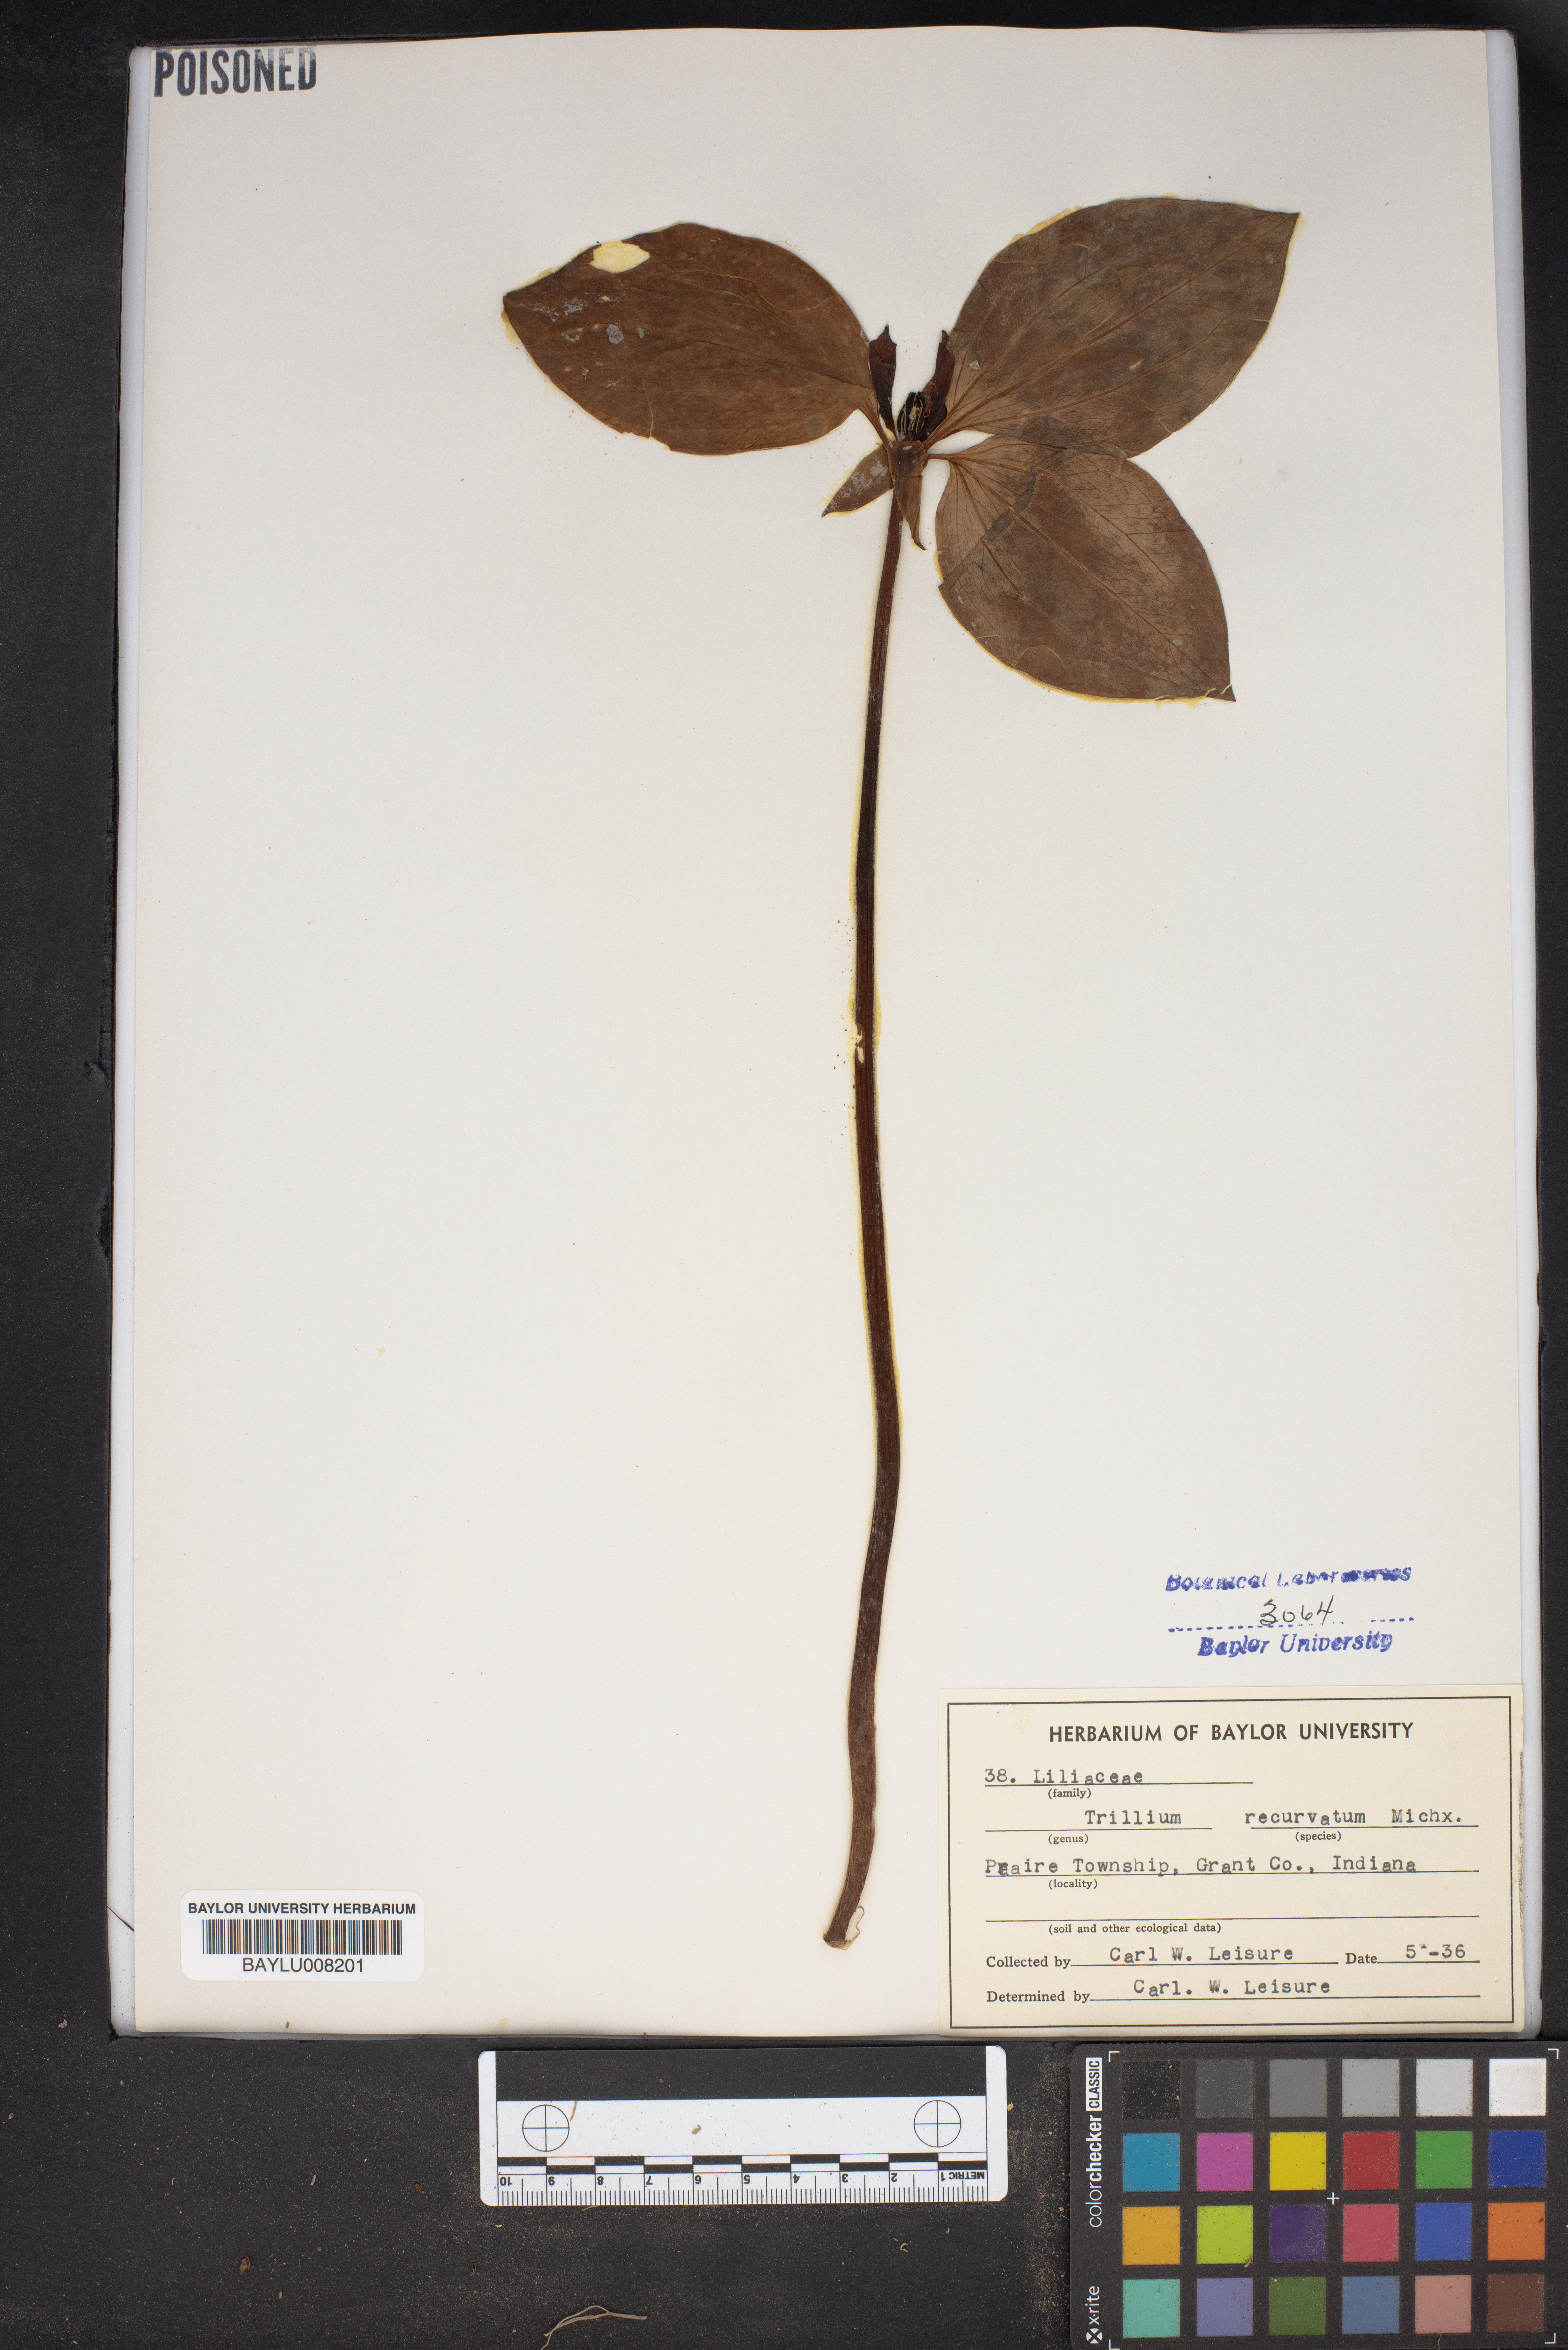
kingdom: Plantae
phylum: Tracheophyta
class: Liliopsida
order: Liliales
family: Melanthiaceae
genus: Trillium
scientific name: Trillium recurvatum
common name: Bloody butcher
